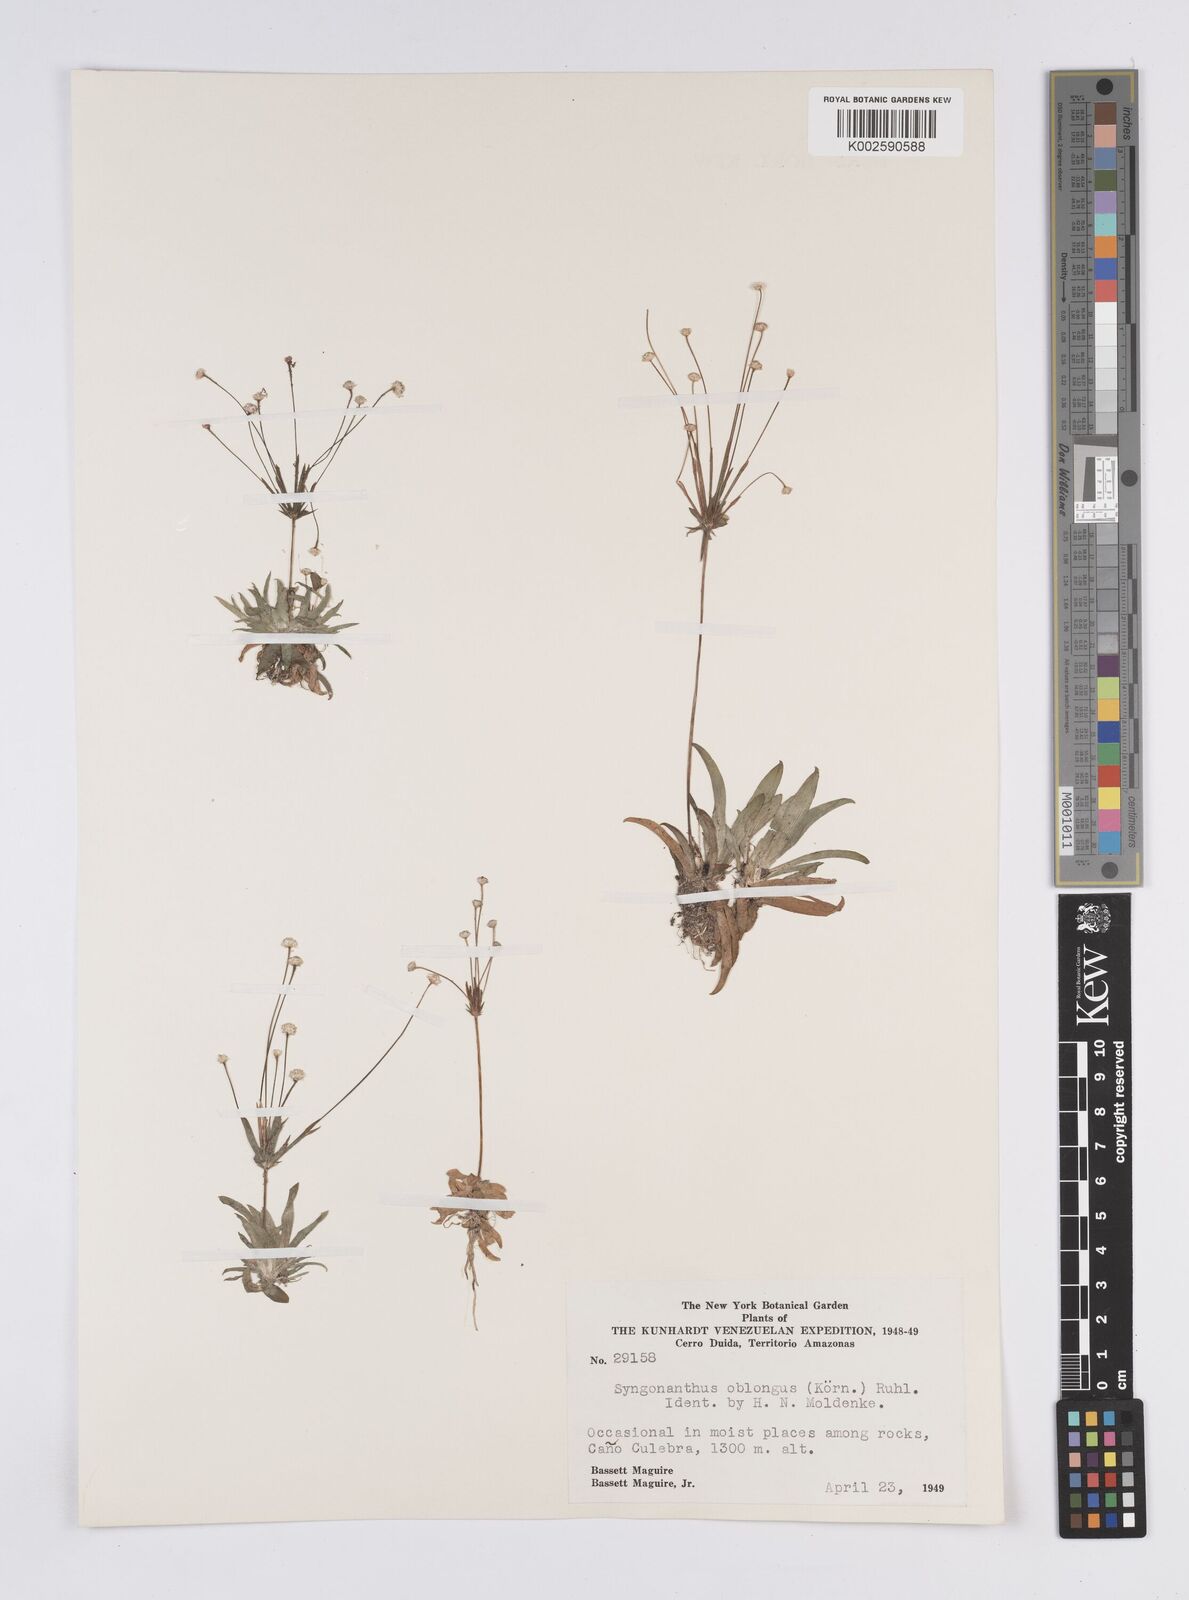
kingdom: Plantae
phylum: Tracheophyta
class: Liliopsida
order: Poales
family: Eriocaulaceae
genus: Syngonanthus
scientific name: Syngonanthus oblongus
